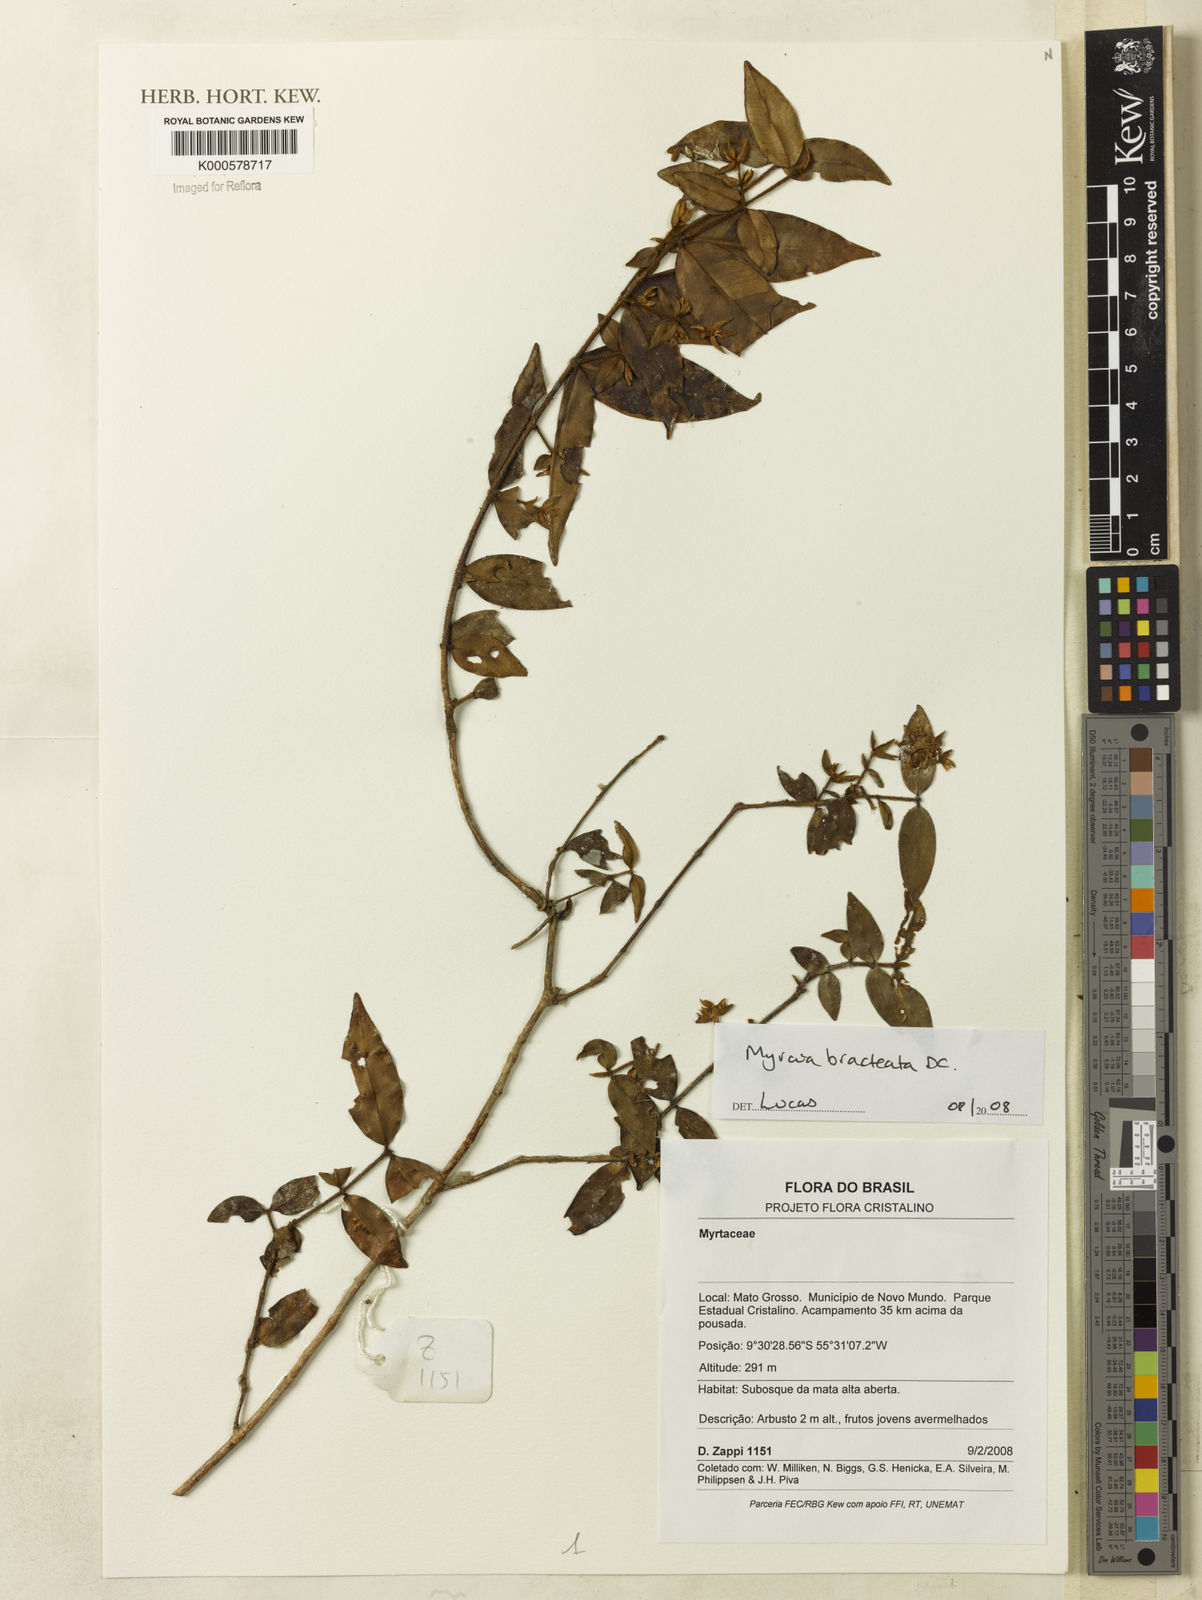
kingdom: Plantae
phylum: Tracheophyta
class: Magnoliopsida
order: Myrtales
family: Myrtaceae
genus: Myrcia
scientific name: Myrcia bracteata
